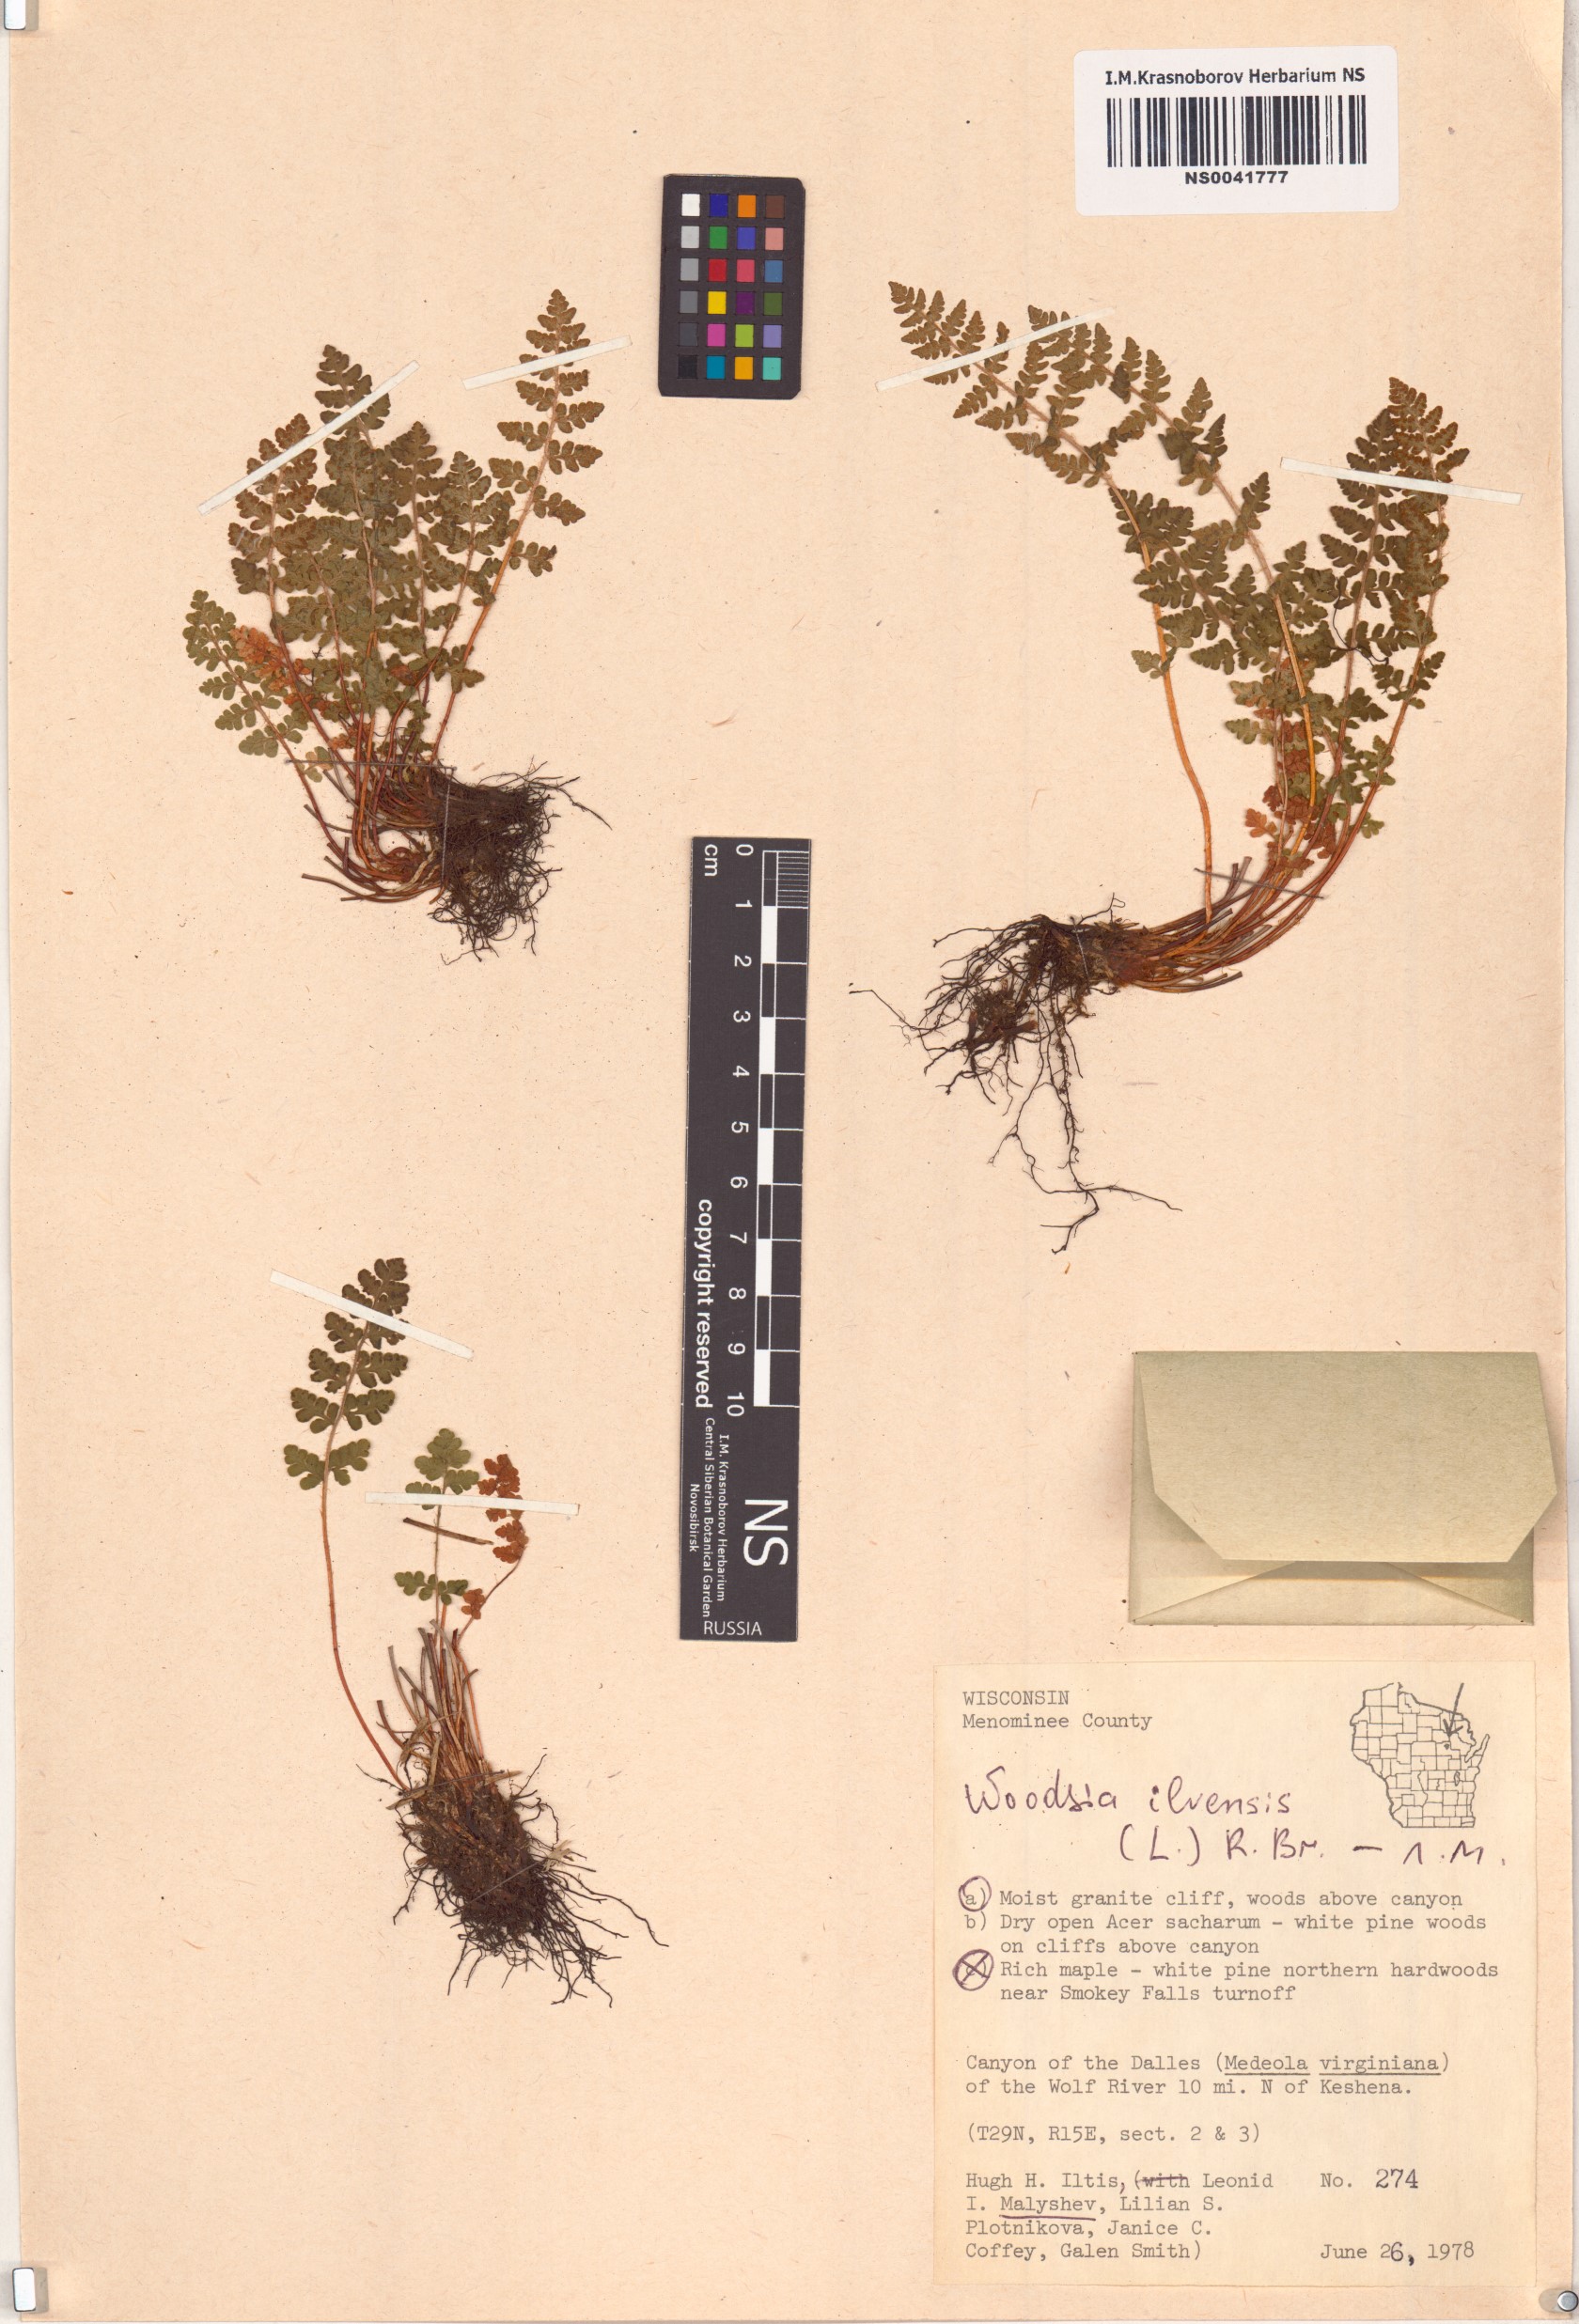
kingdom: Plantae
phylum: Tracheophyta
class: Polypodiopsida
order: Polypodiales
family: Woodsiaceae
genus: Woodsia
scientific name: Woodsia ilvensis
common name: Fragrant woodsia
